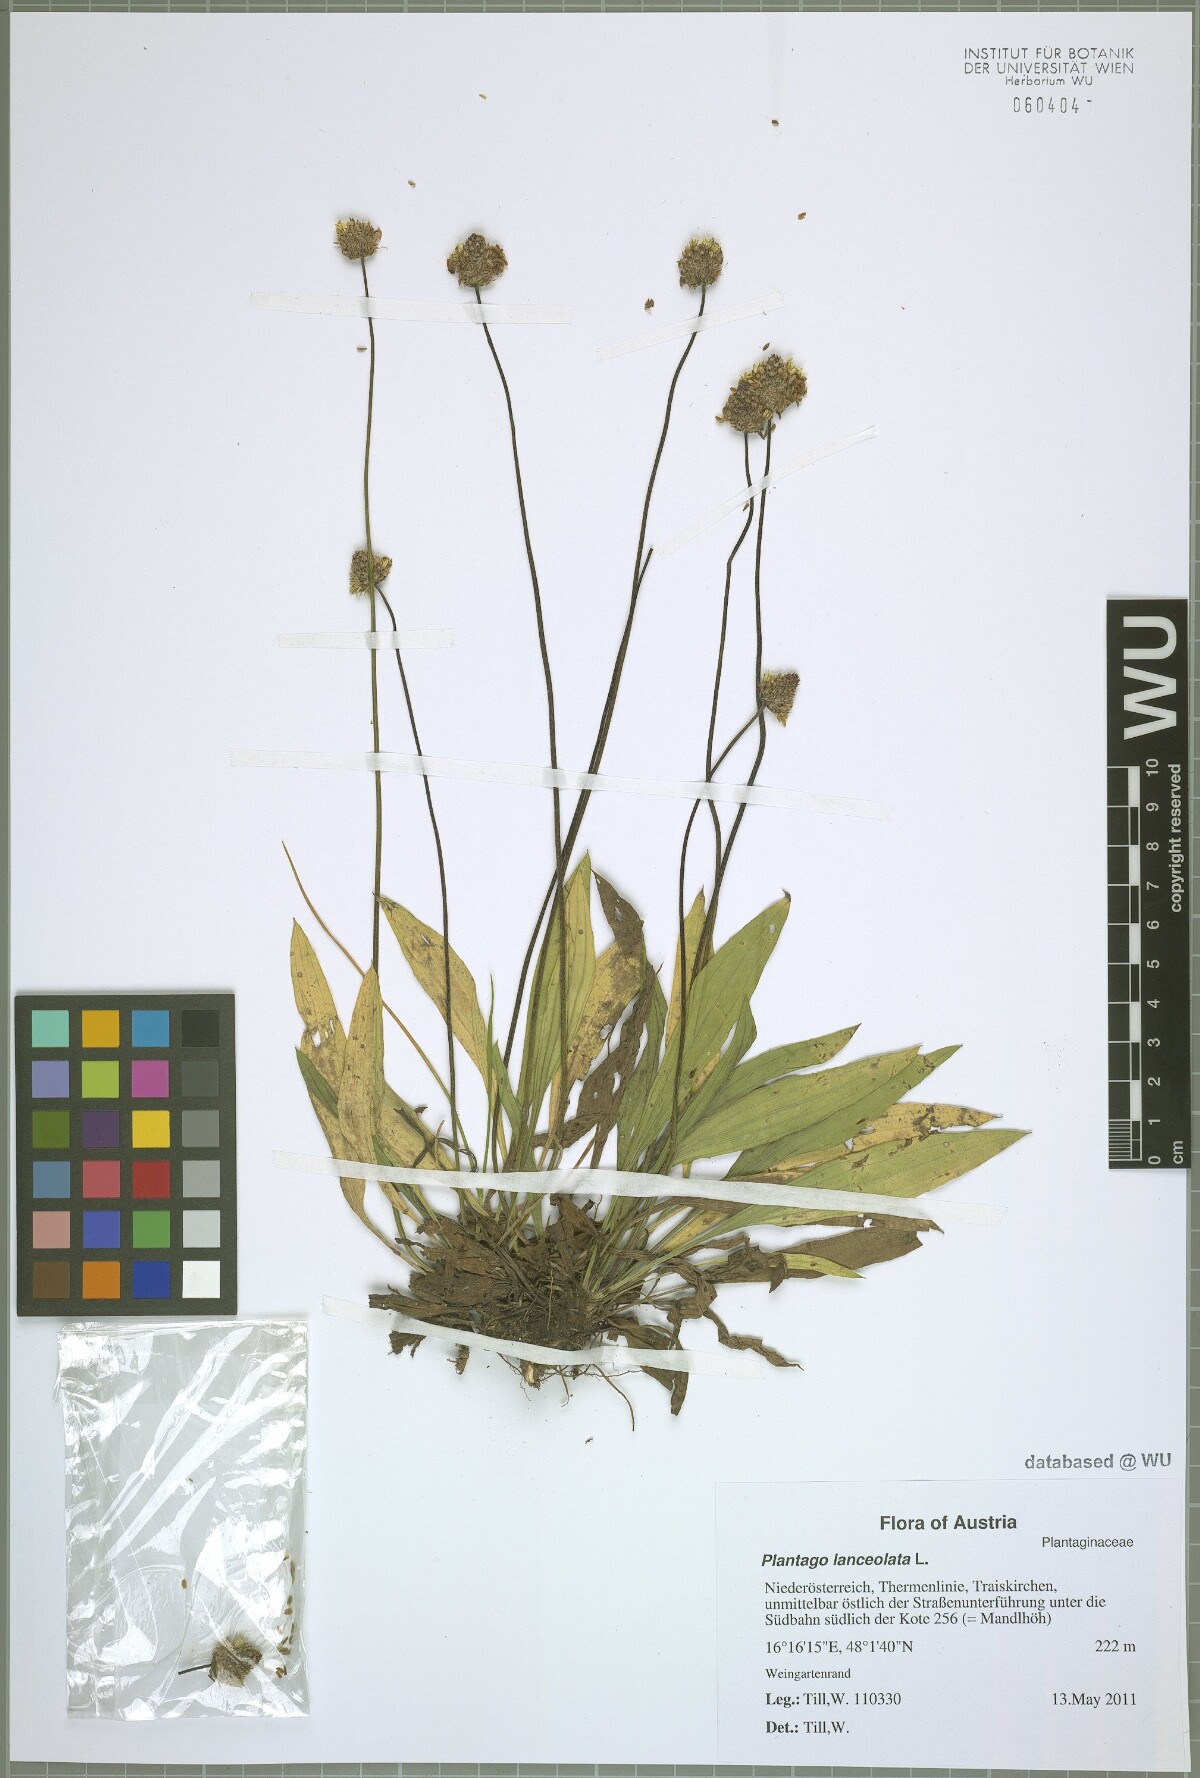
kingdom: Plantae
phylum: Tracheophyta
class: Magnoliopsida
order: Lamiales
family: Plantaginaceae
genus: Plantago
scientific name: Plantago lanceolata
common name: Ribwort plantain
